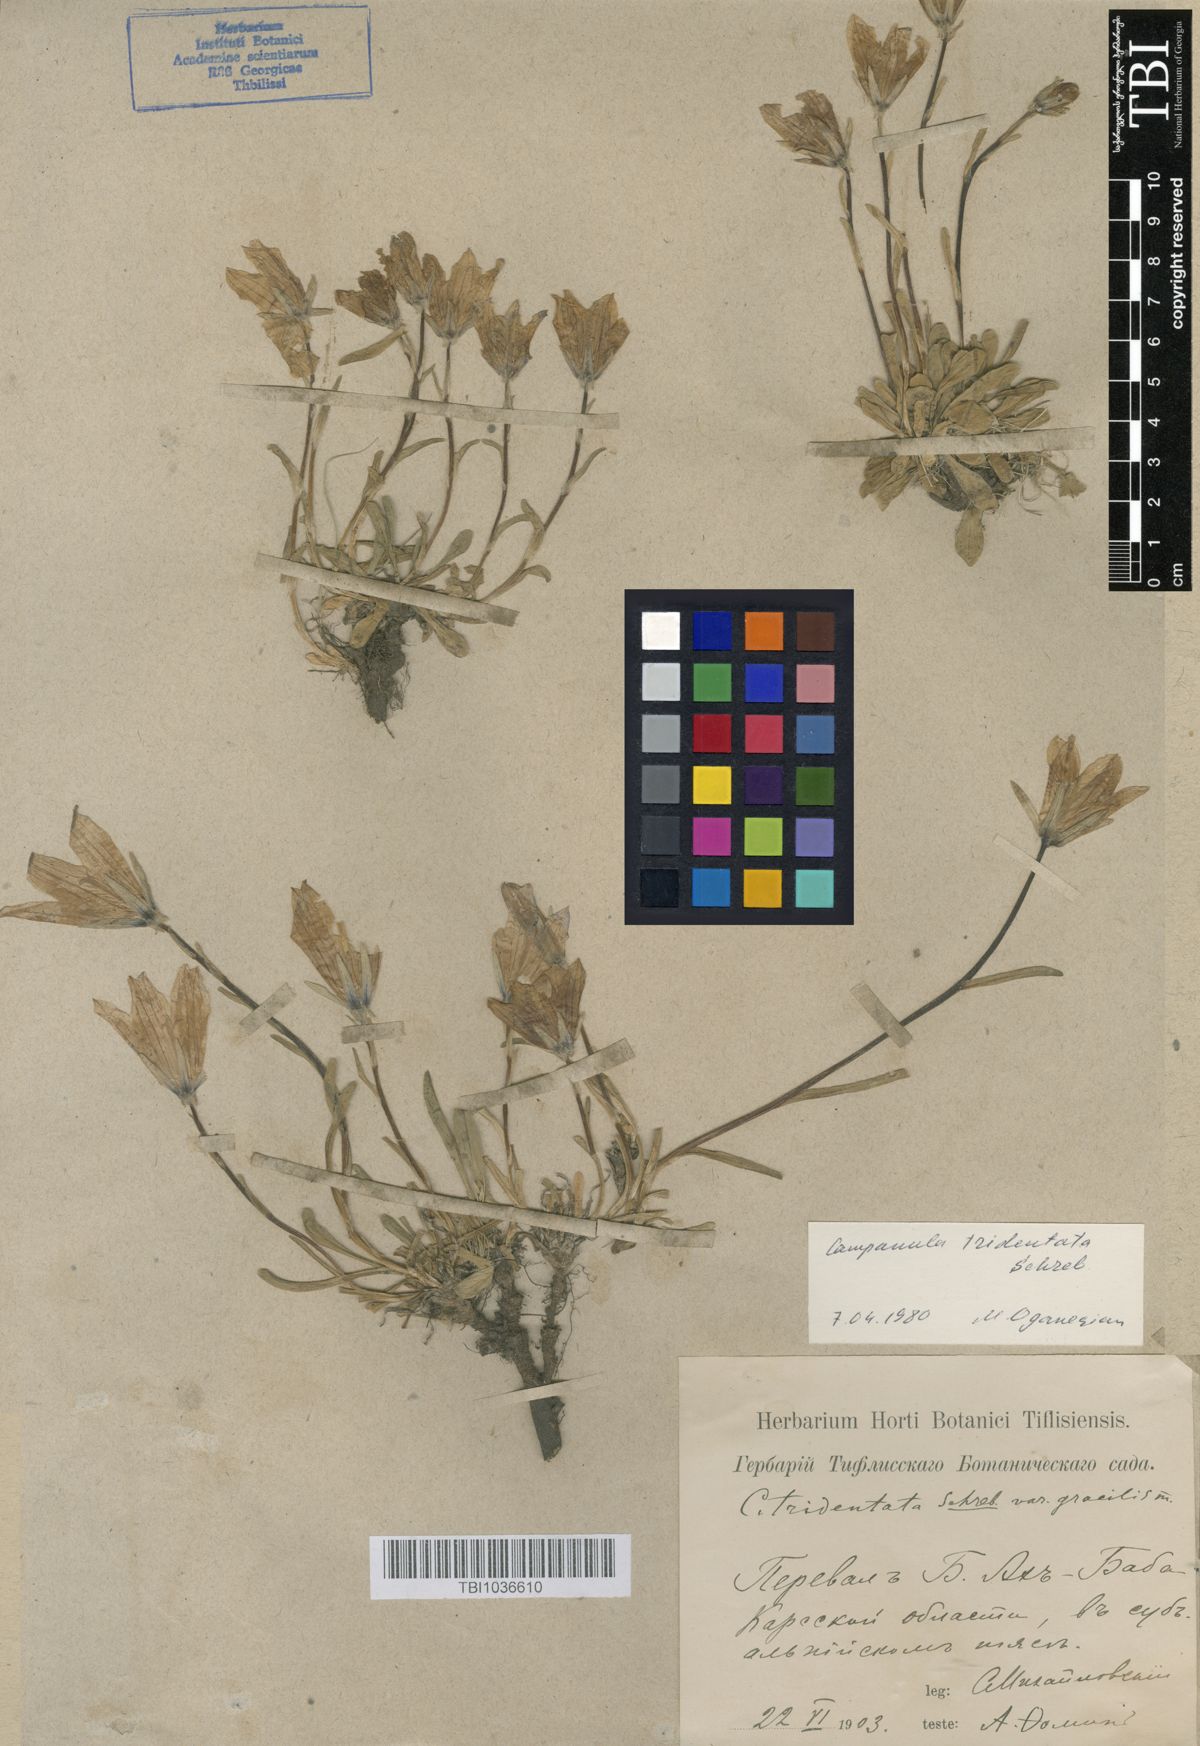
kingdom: Plantae
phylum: Tracheophyta
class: Magnoliopsida
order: Asterales
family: Campanulaceae
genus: Campanula
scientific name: Campanula tridentata
